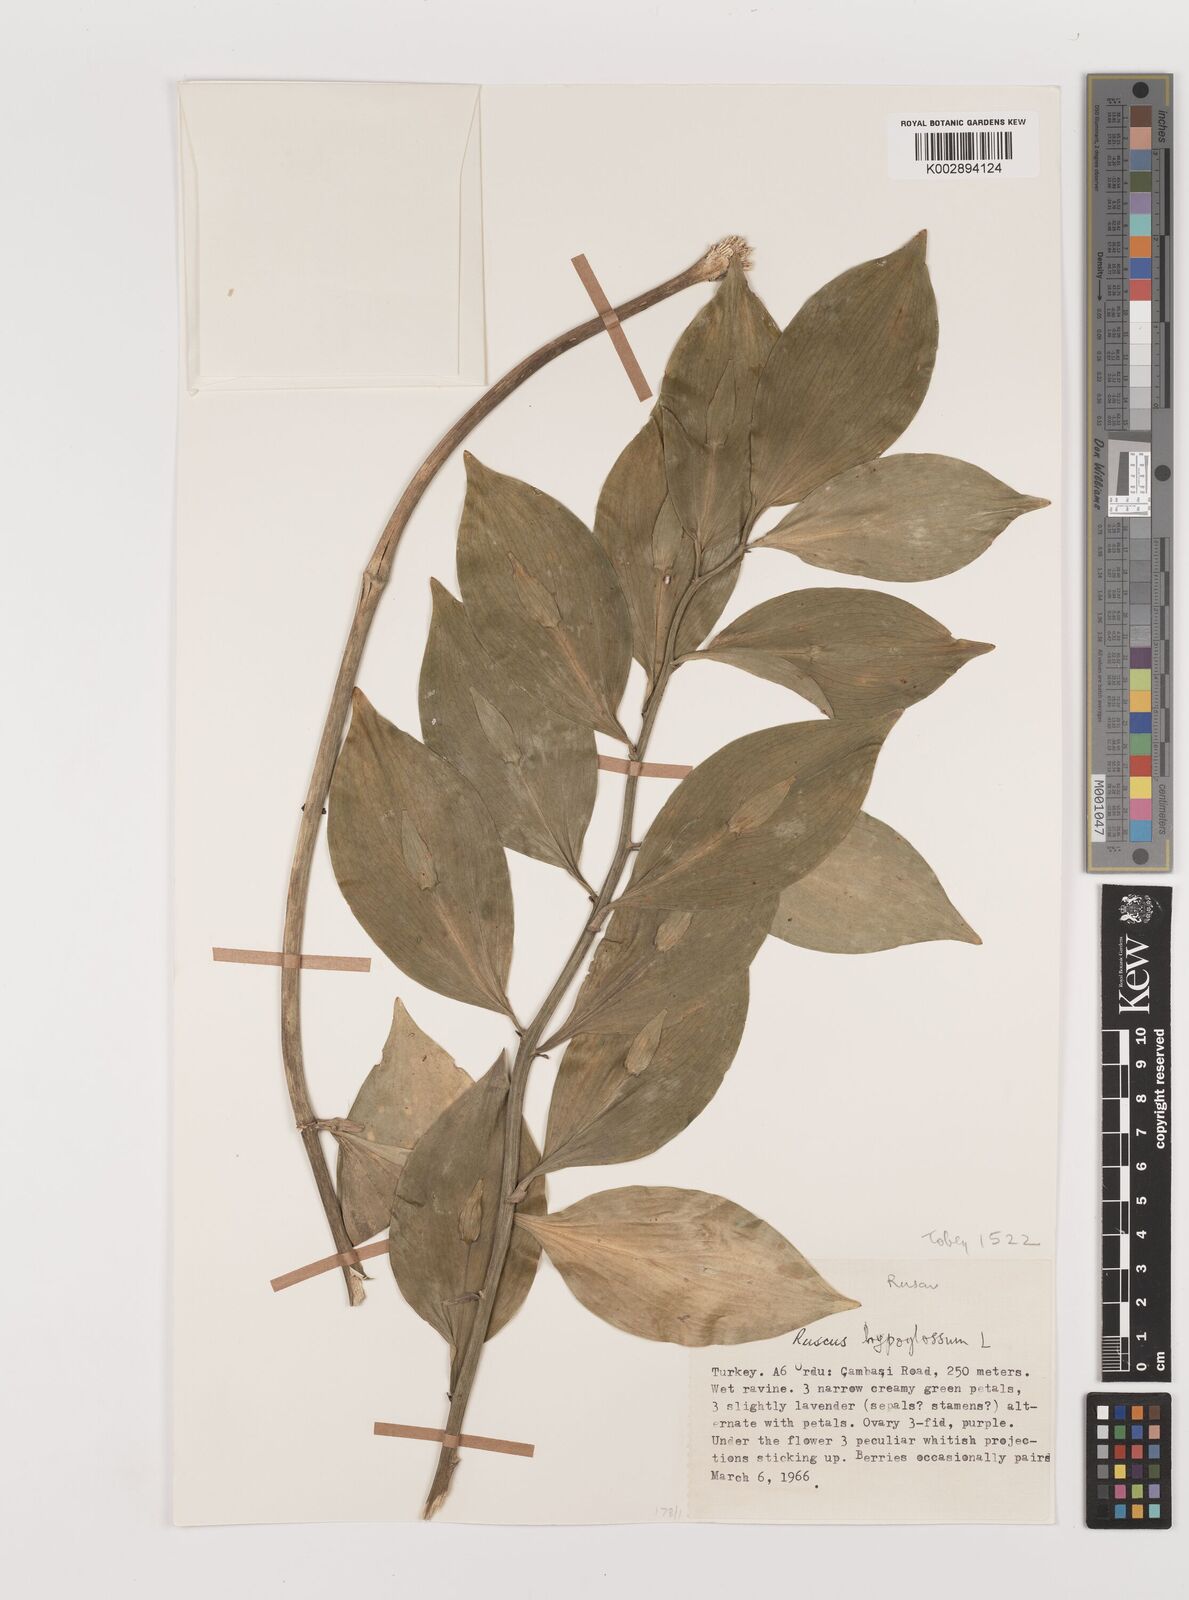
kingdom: Plantae
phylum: Tracheophyta
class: Liliopsida
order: Asparagales
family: Asparagaceae
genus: Ruscus
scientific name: Ruscus hypoglossum
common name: Spineless butcher's-broom
